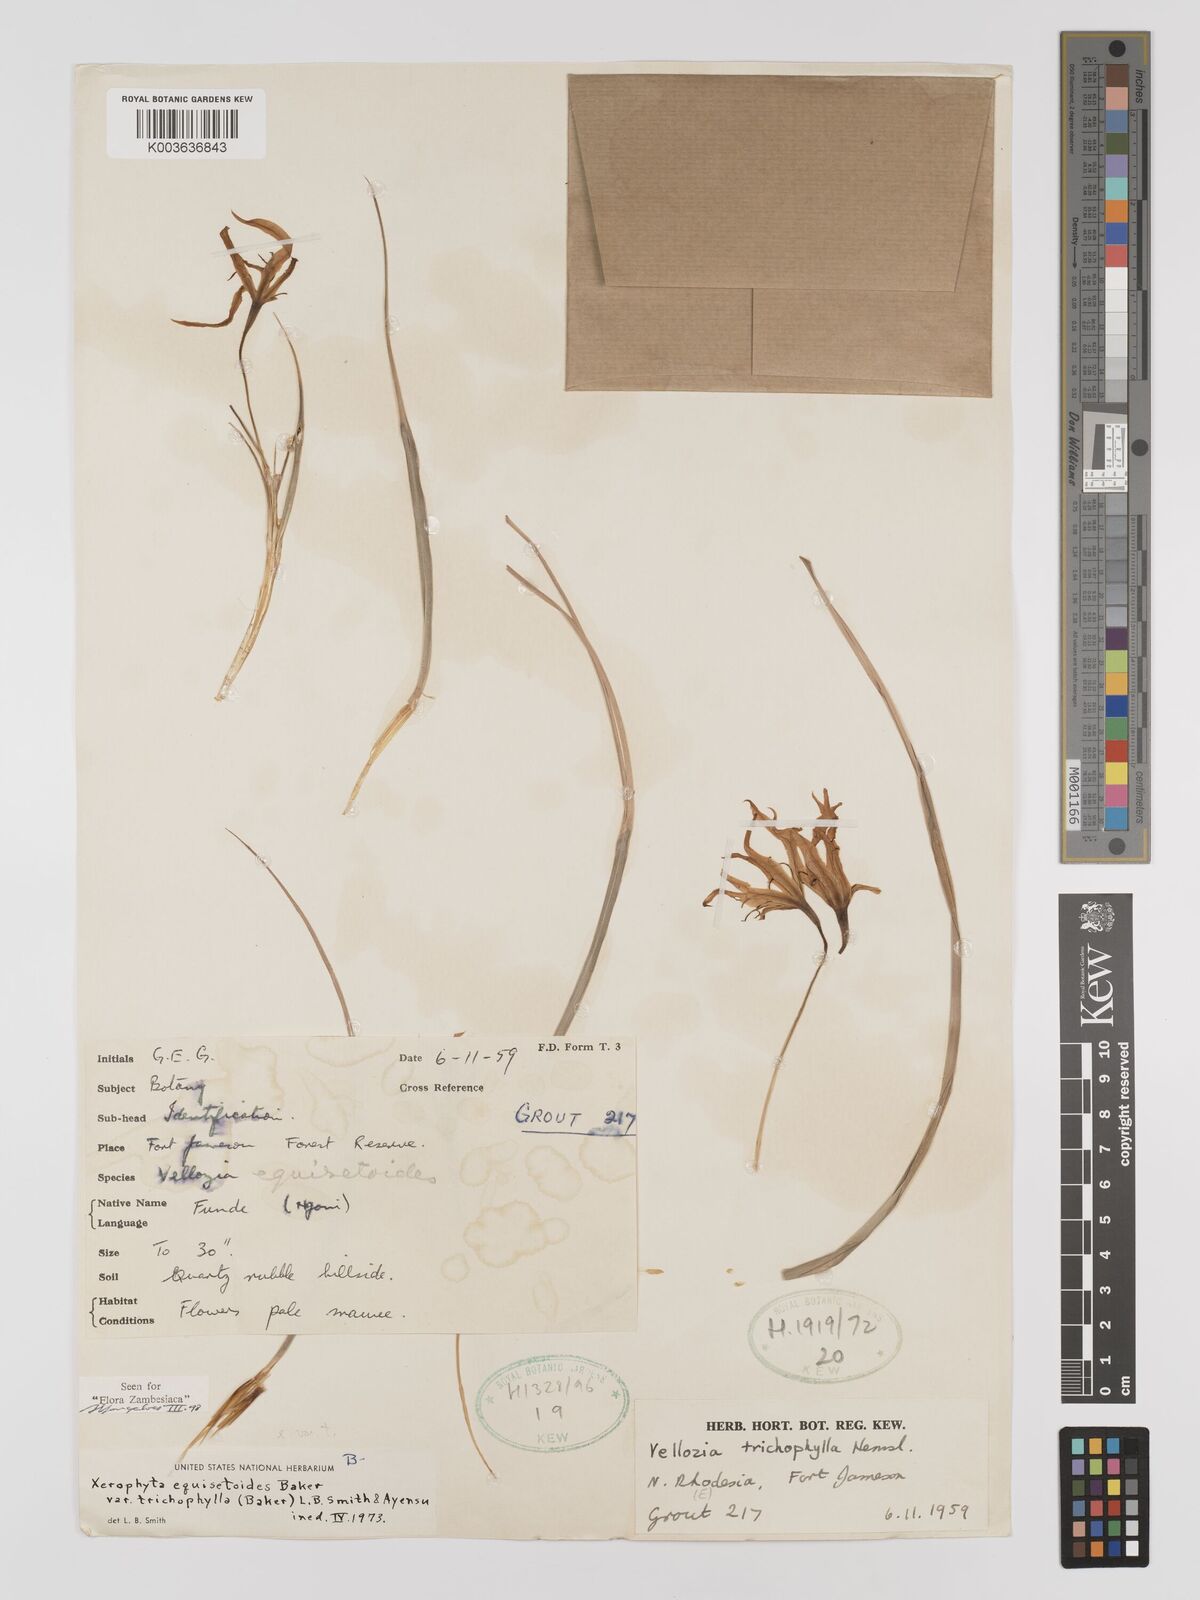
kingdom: Plantae
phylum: Tracheophyta
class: Liliopsida
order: Pandanales
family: Velloziaceae
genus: Xerophyta
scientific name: Xerophyta trichophylla
